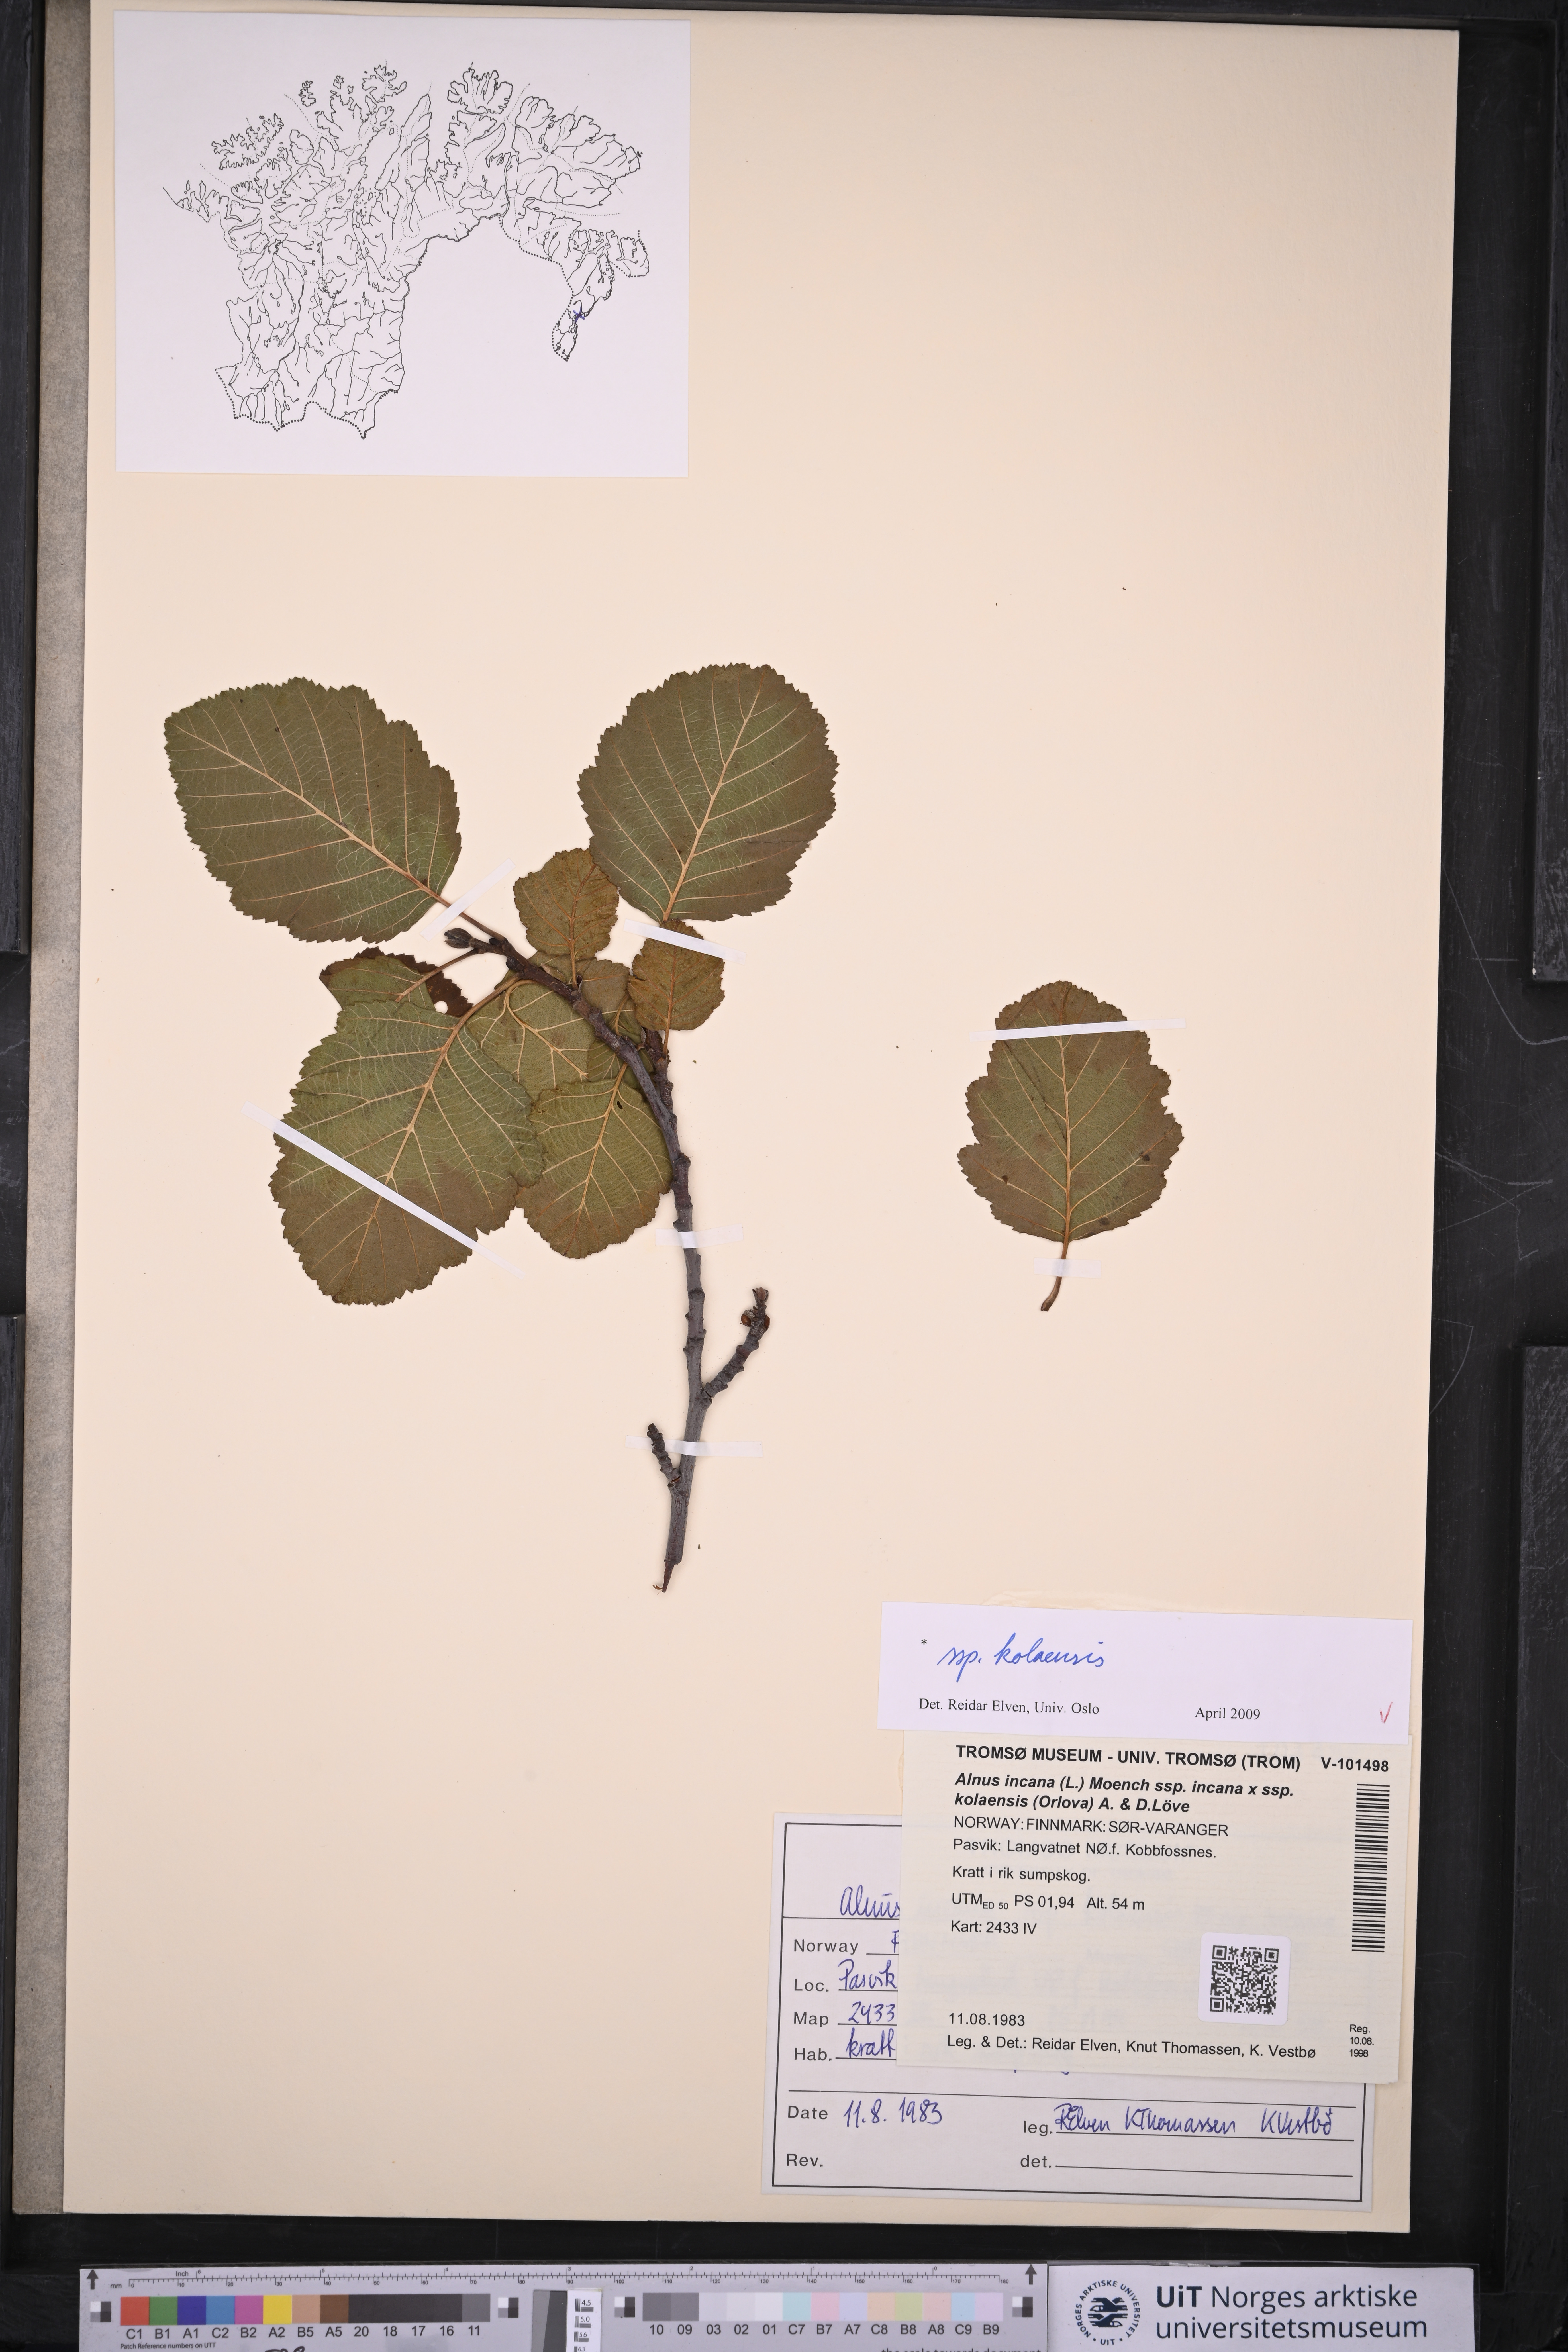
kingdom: Plantae
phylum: Tracheophyta
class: Magnoliopsida
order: Fagales
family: Betulaceae
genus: Alnus
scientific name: Alnus incana
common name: Grey alder
